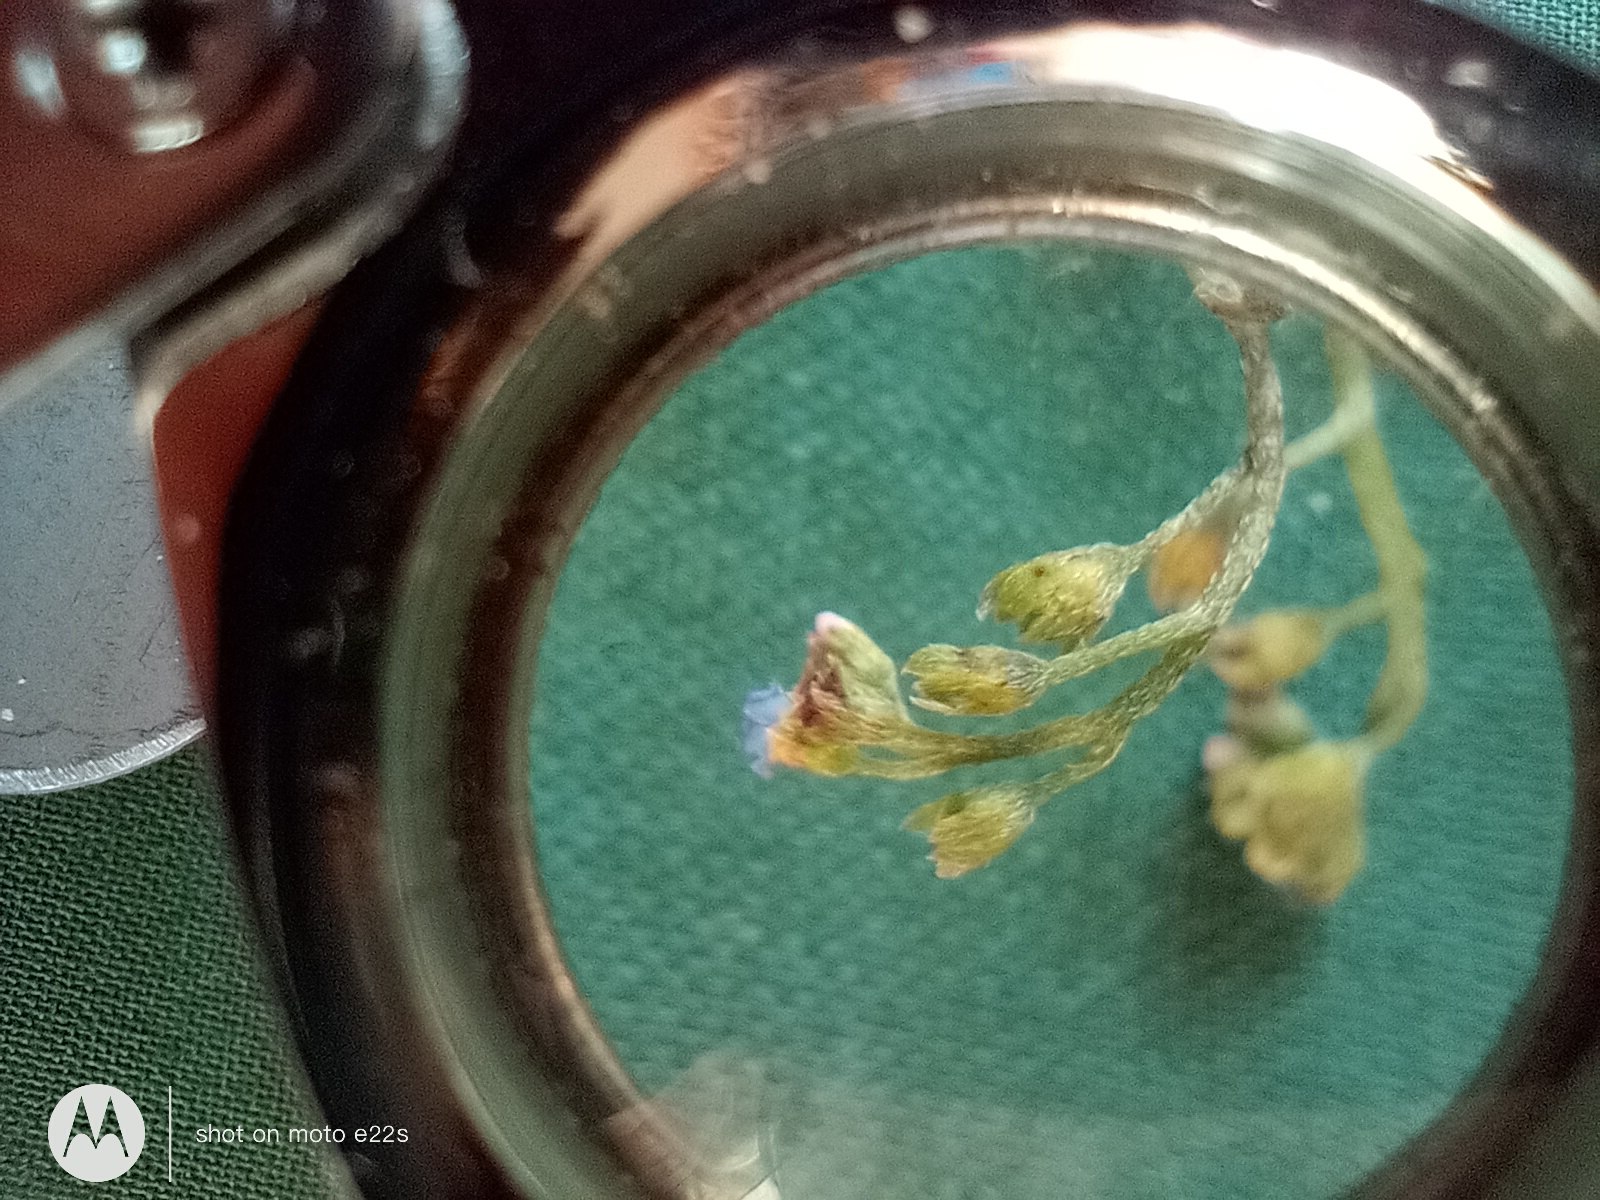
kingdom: Plantae
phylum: Tracheophyta
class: Magnoliopsida
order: Boraginales
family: Boraginaceae
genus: Myosotis
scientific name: Myosotis scorpioides
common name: Eng-forglemmigej
